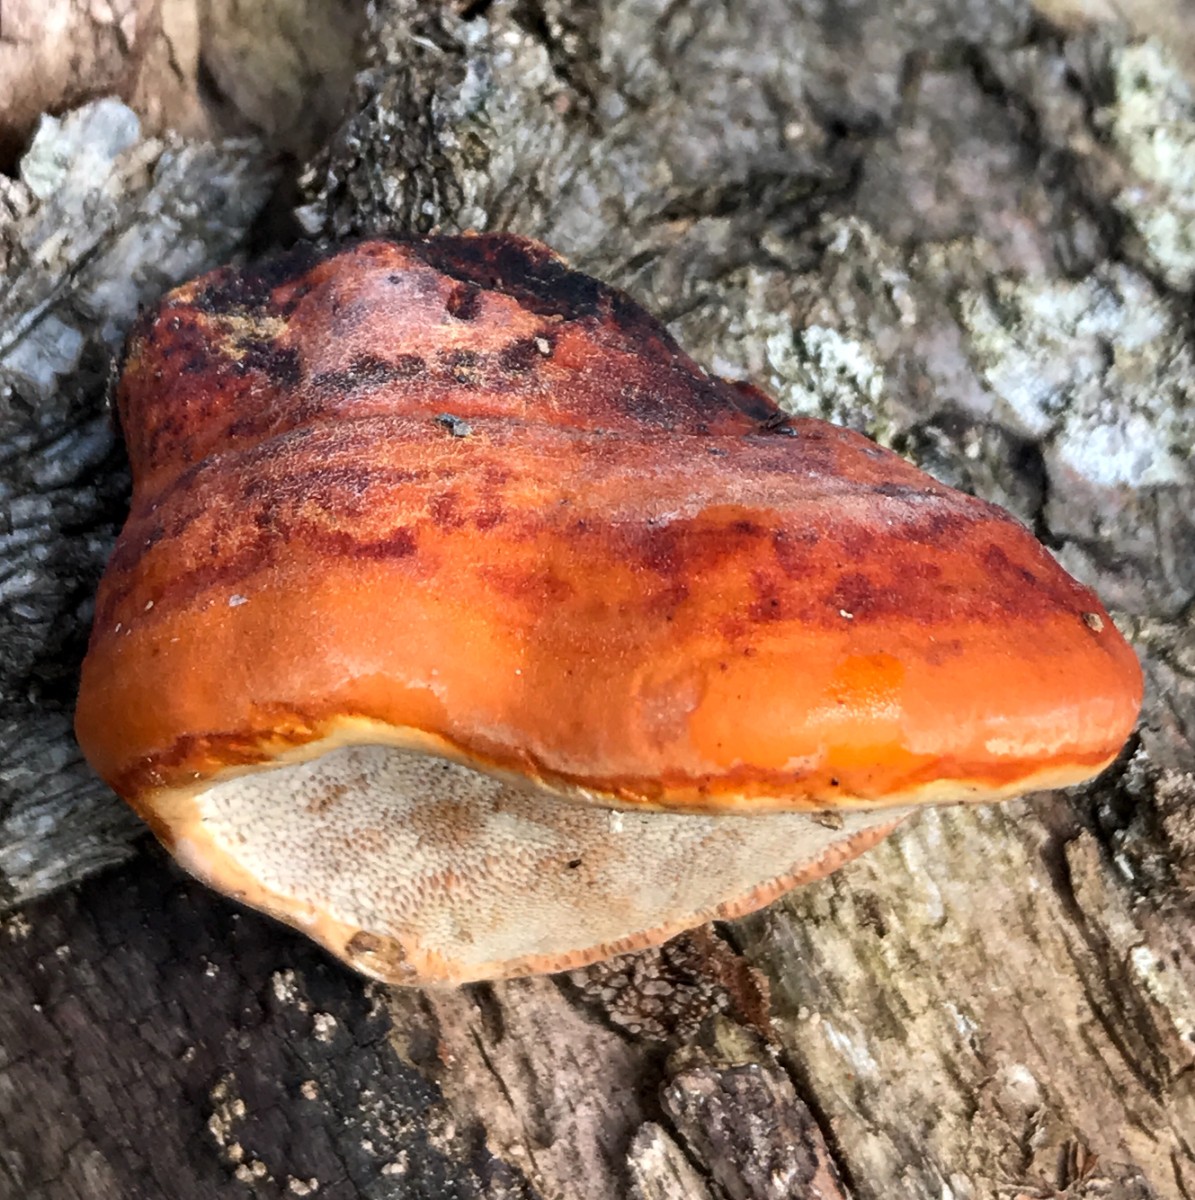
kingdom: Fungi
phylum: Basidiomycota
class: Agaricomycetes
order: Polyporales
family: Fomitopsidaceae
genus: Fomitopsis
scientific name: Fomitopsis pinicola
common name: randbæltet hovporesvamp
